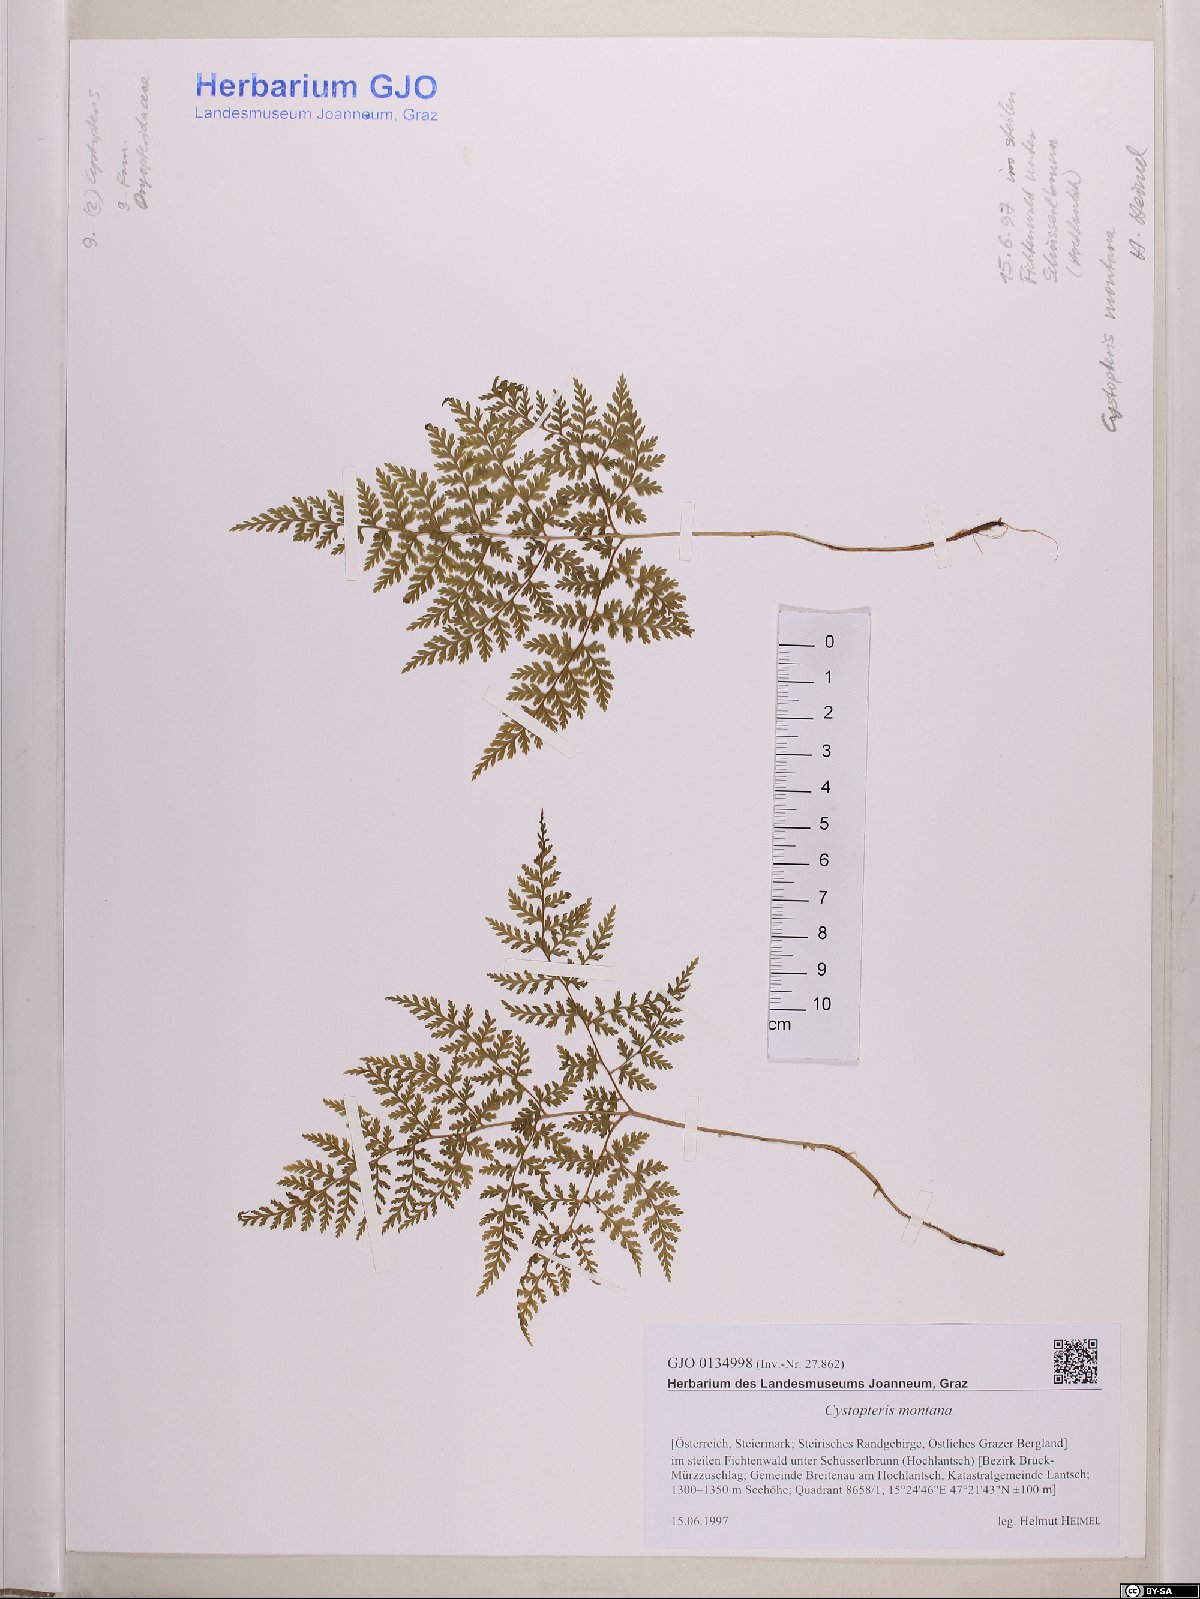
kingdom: Plantae
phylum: Tracheophyta
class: Polypodiopsida
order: Polypodiales
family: Cystopteridaceae
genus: Cystopteris
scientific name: Cystopteris montana
